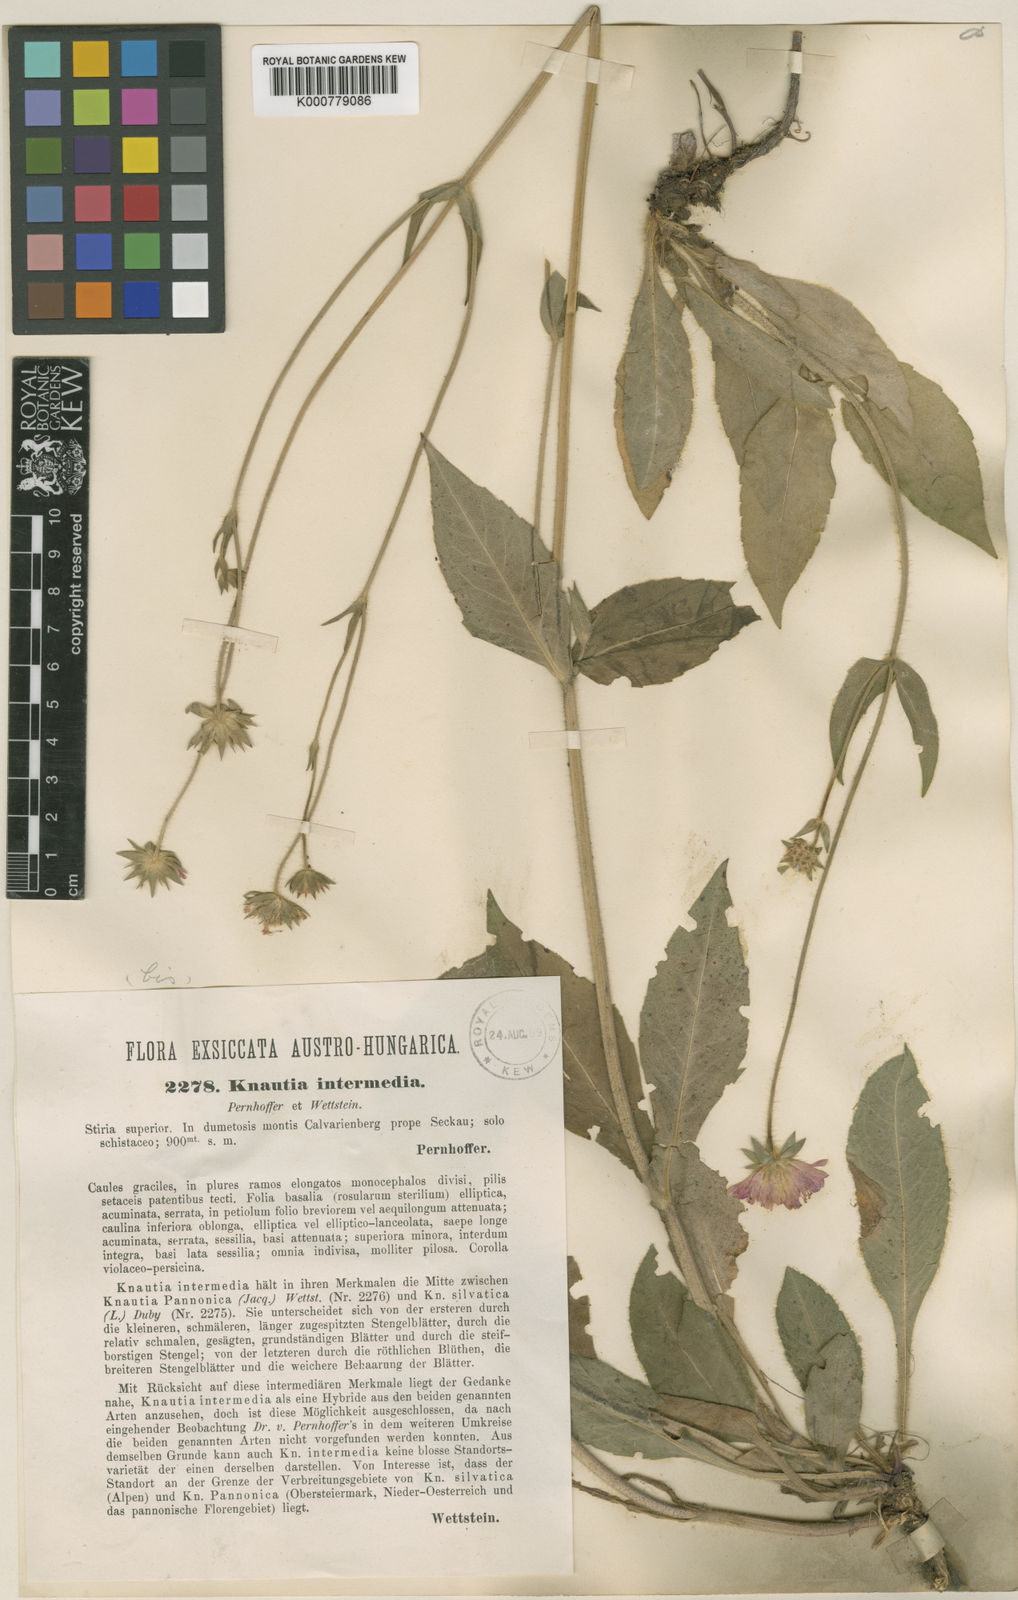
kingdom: Plantae
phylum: Tracheophyta
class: Magnoliopsida
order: Dipsacales
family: Caprifoliaceae
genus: Knautia
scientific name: Knautia drymeia
